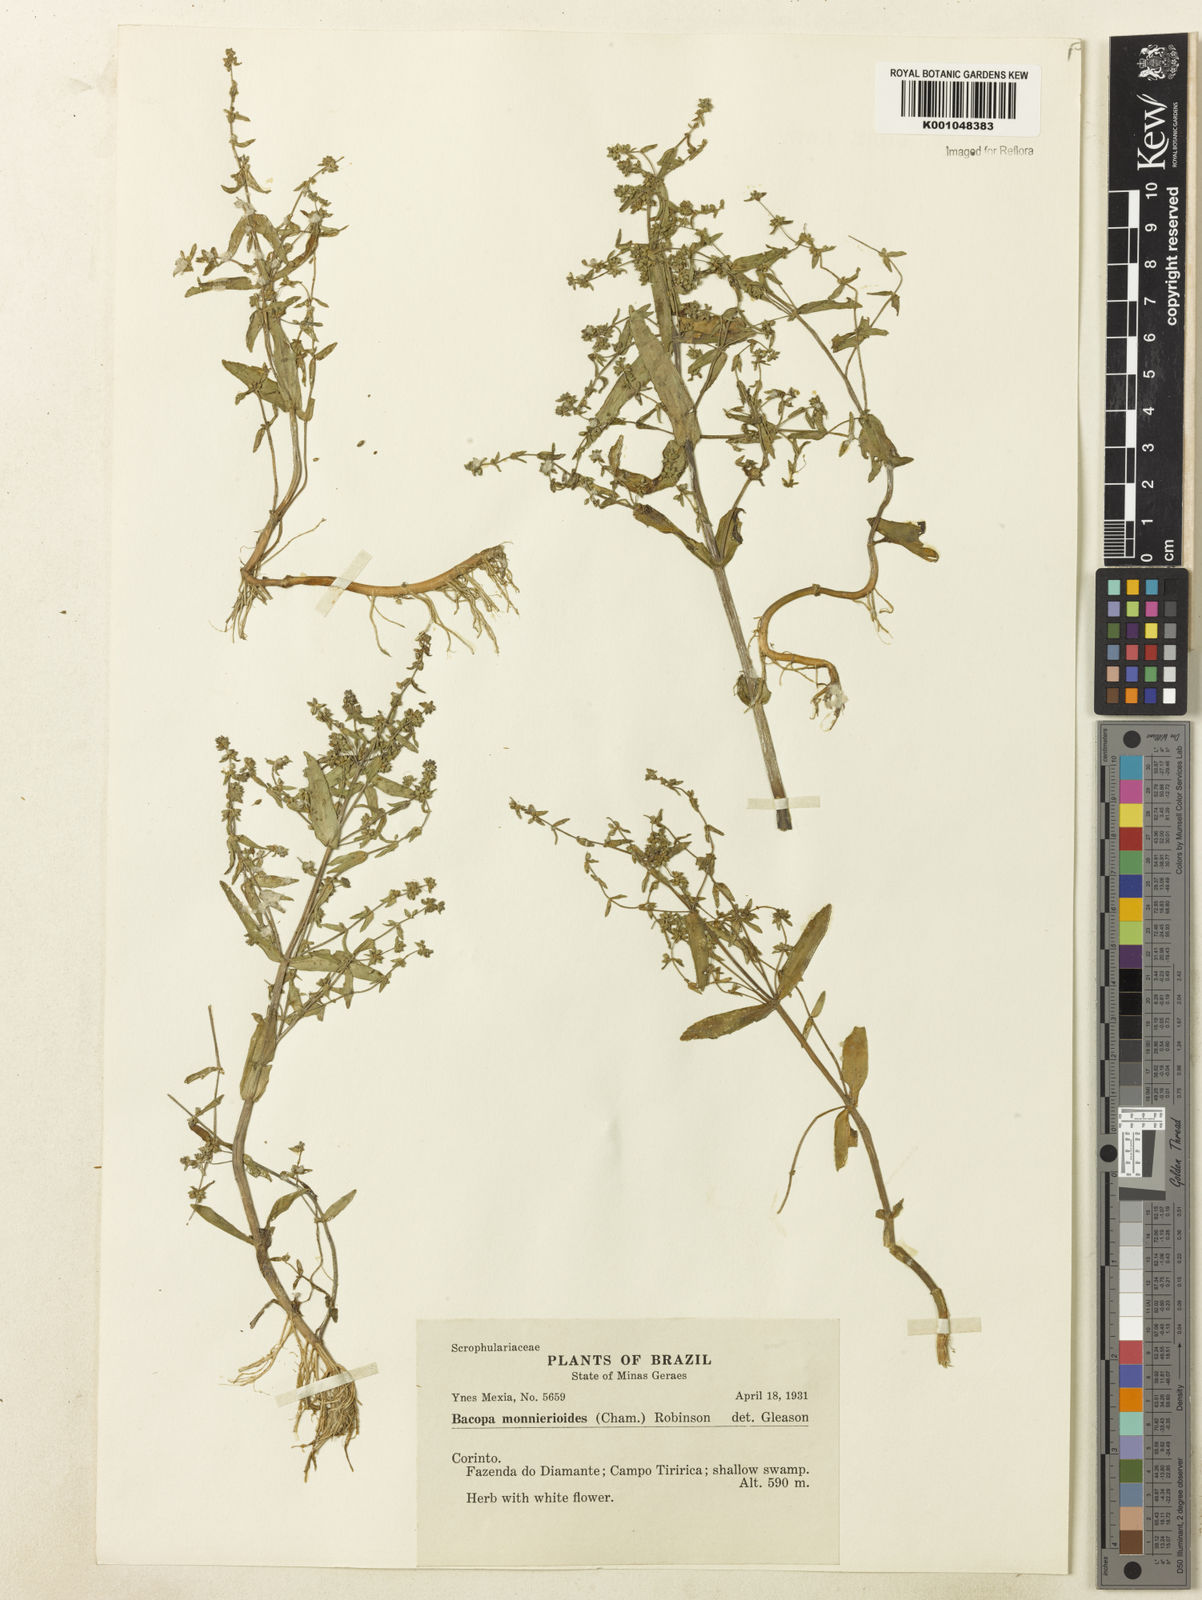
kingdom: Plantae
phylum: Tracheophyta
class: Magnoliopsida
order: Lamiales
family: Plantaginaceae
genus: Bacopa
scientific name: Bacopa monnierioides
